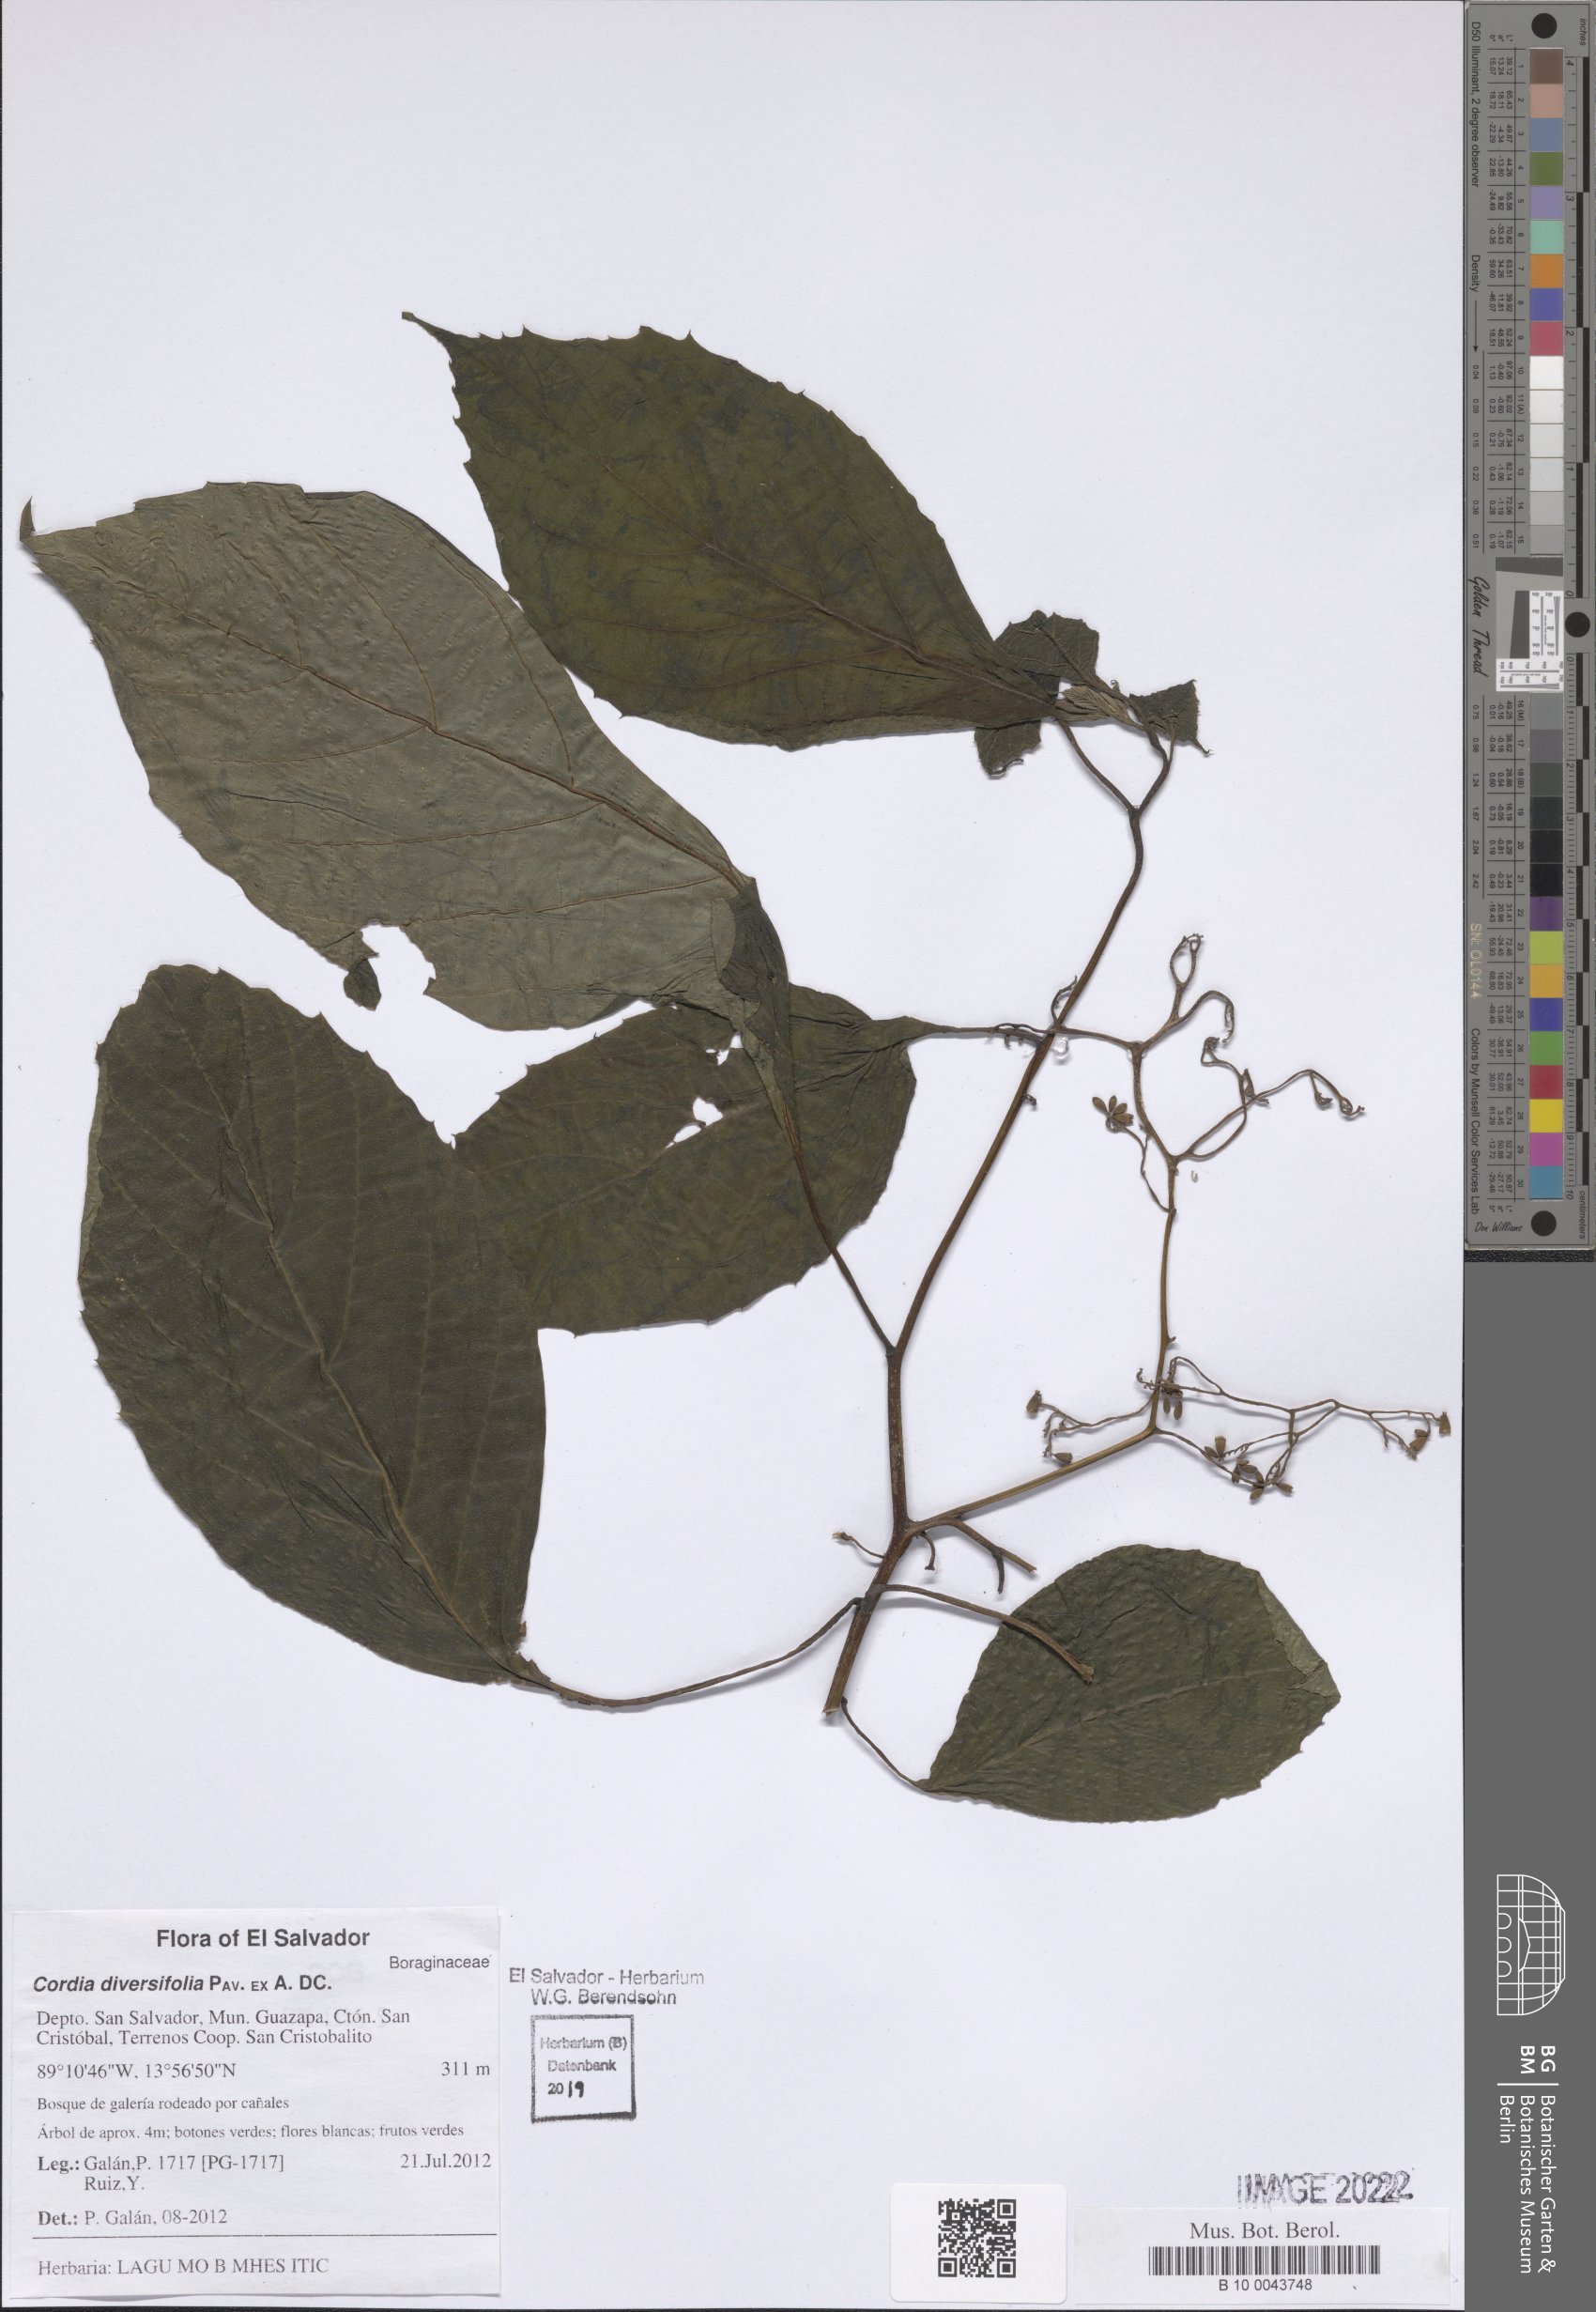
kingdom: Plantae
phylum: Tracheophyta
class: Magnoliopsida
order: Boraginales
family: Cordiaceae
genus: Cordia
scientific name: Cordia diversifolia
